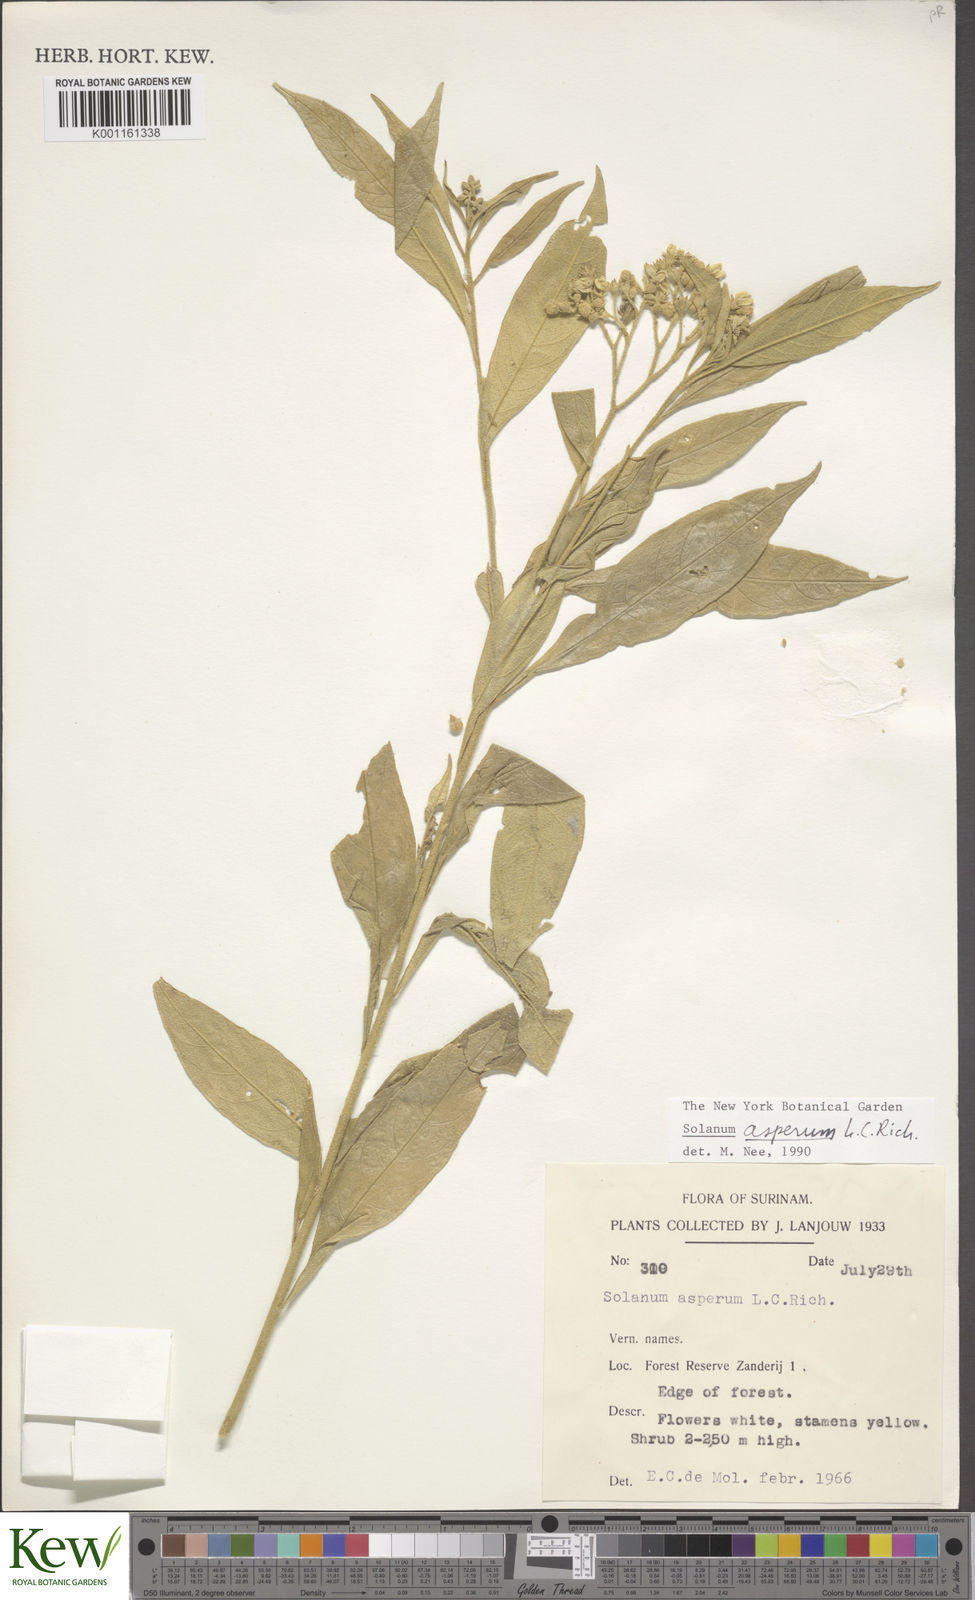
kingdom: Plantae
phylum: Tracheophyta
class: Magnoliopsida
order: Solanales
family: Solanaceae
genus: Solanum
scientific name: Solanum asperum
